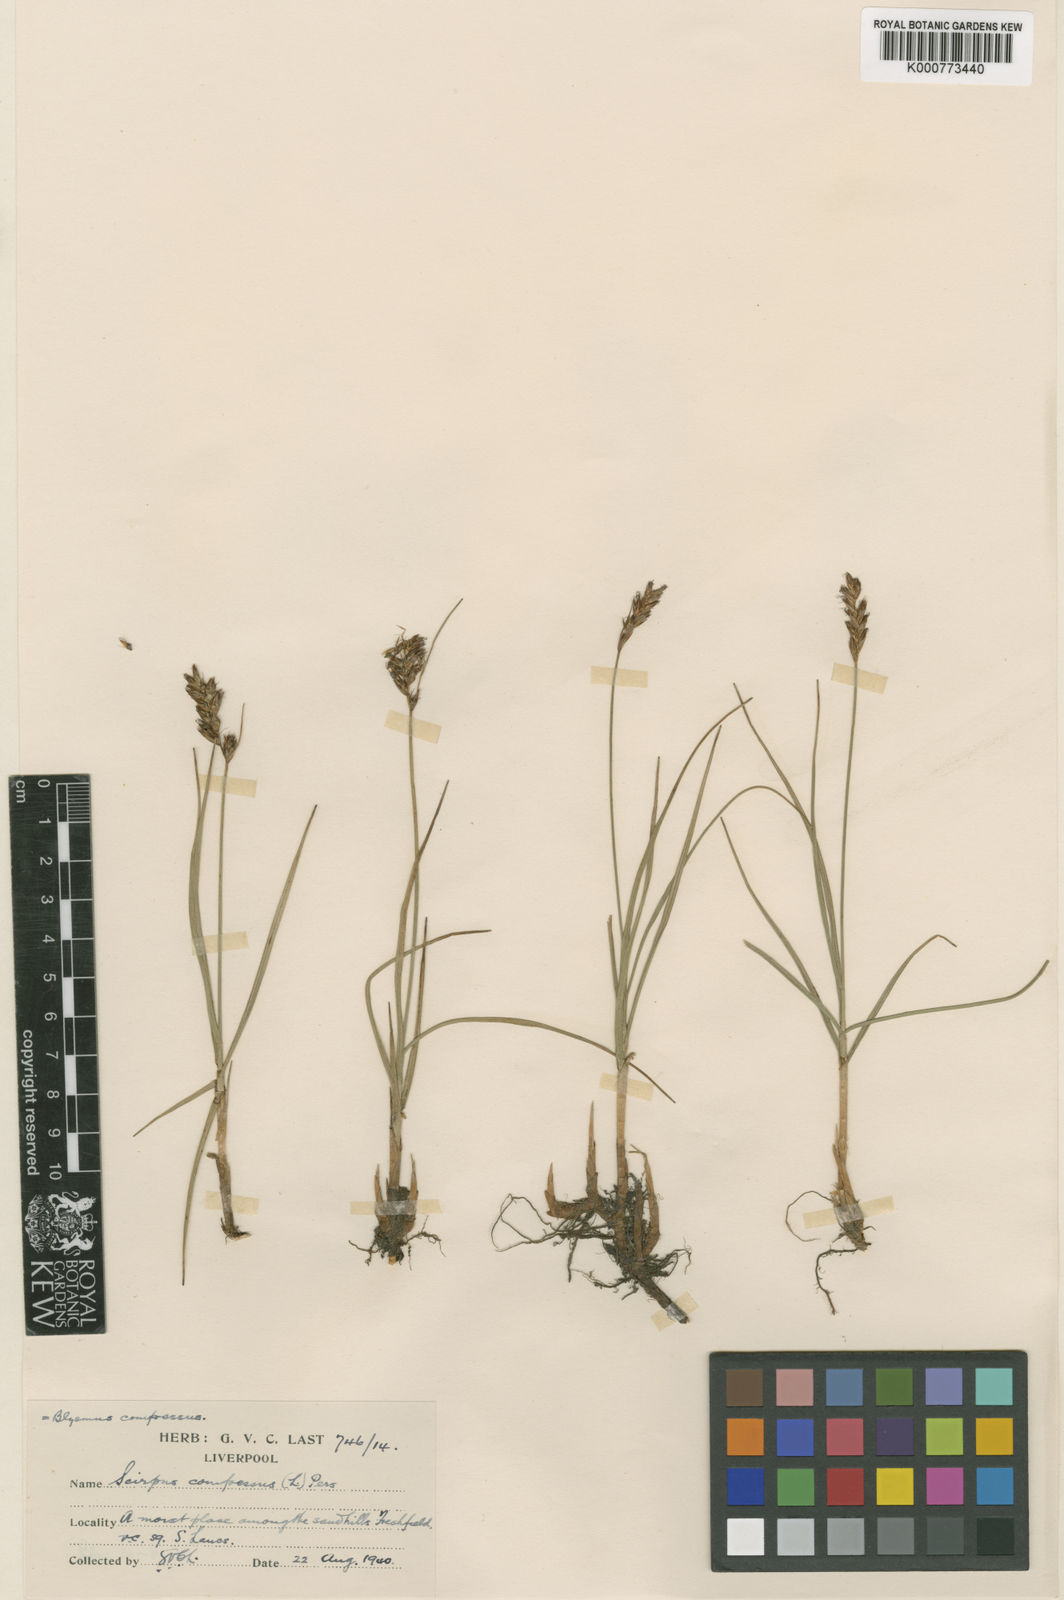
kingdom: Plantae
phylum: Tracheophyta
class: Liliopsida
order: Poales
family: Cyperaceae
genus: Blysmus
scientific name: Blysmus compressus
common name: Flat-sedge
